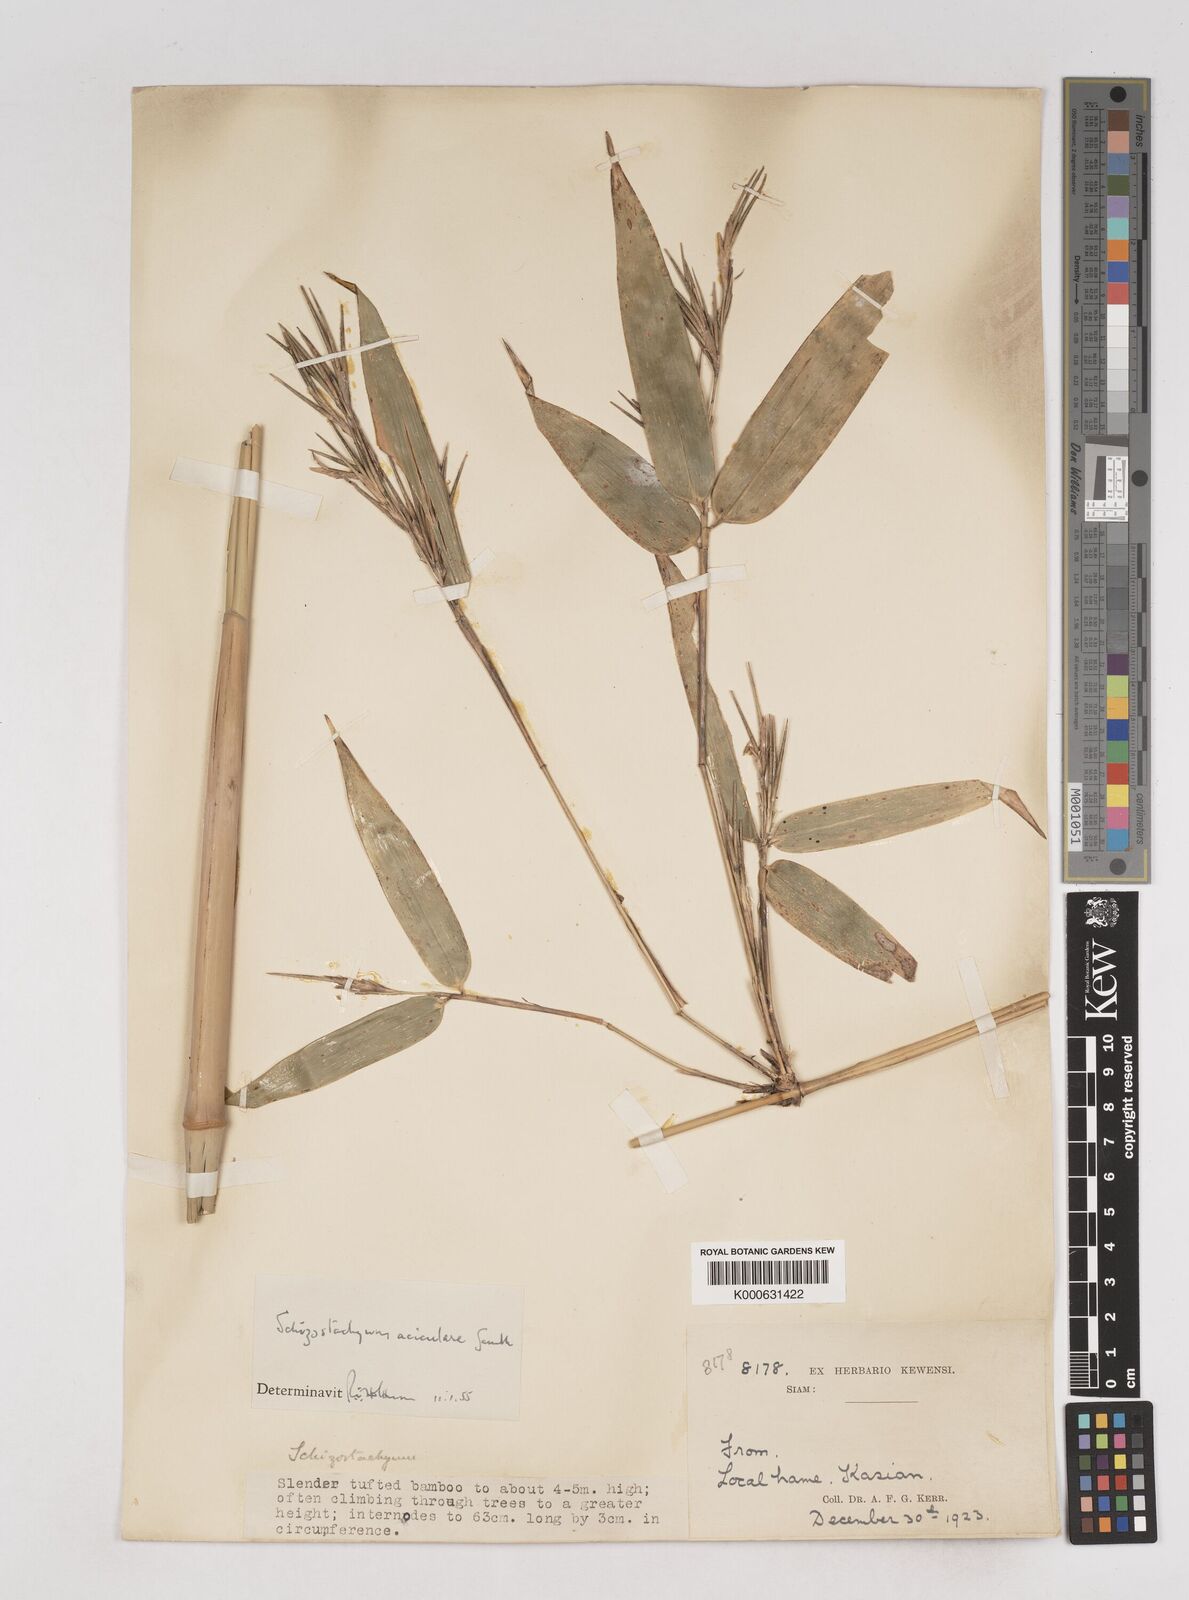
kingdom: Plantae
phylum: Tracheophyta
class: Liliopsida
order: Poales
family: Poaceae
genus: Schizostachyum
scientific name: Schizostachyum aciculare
